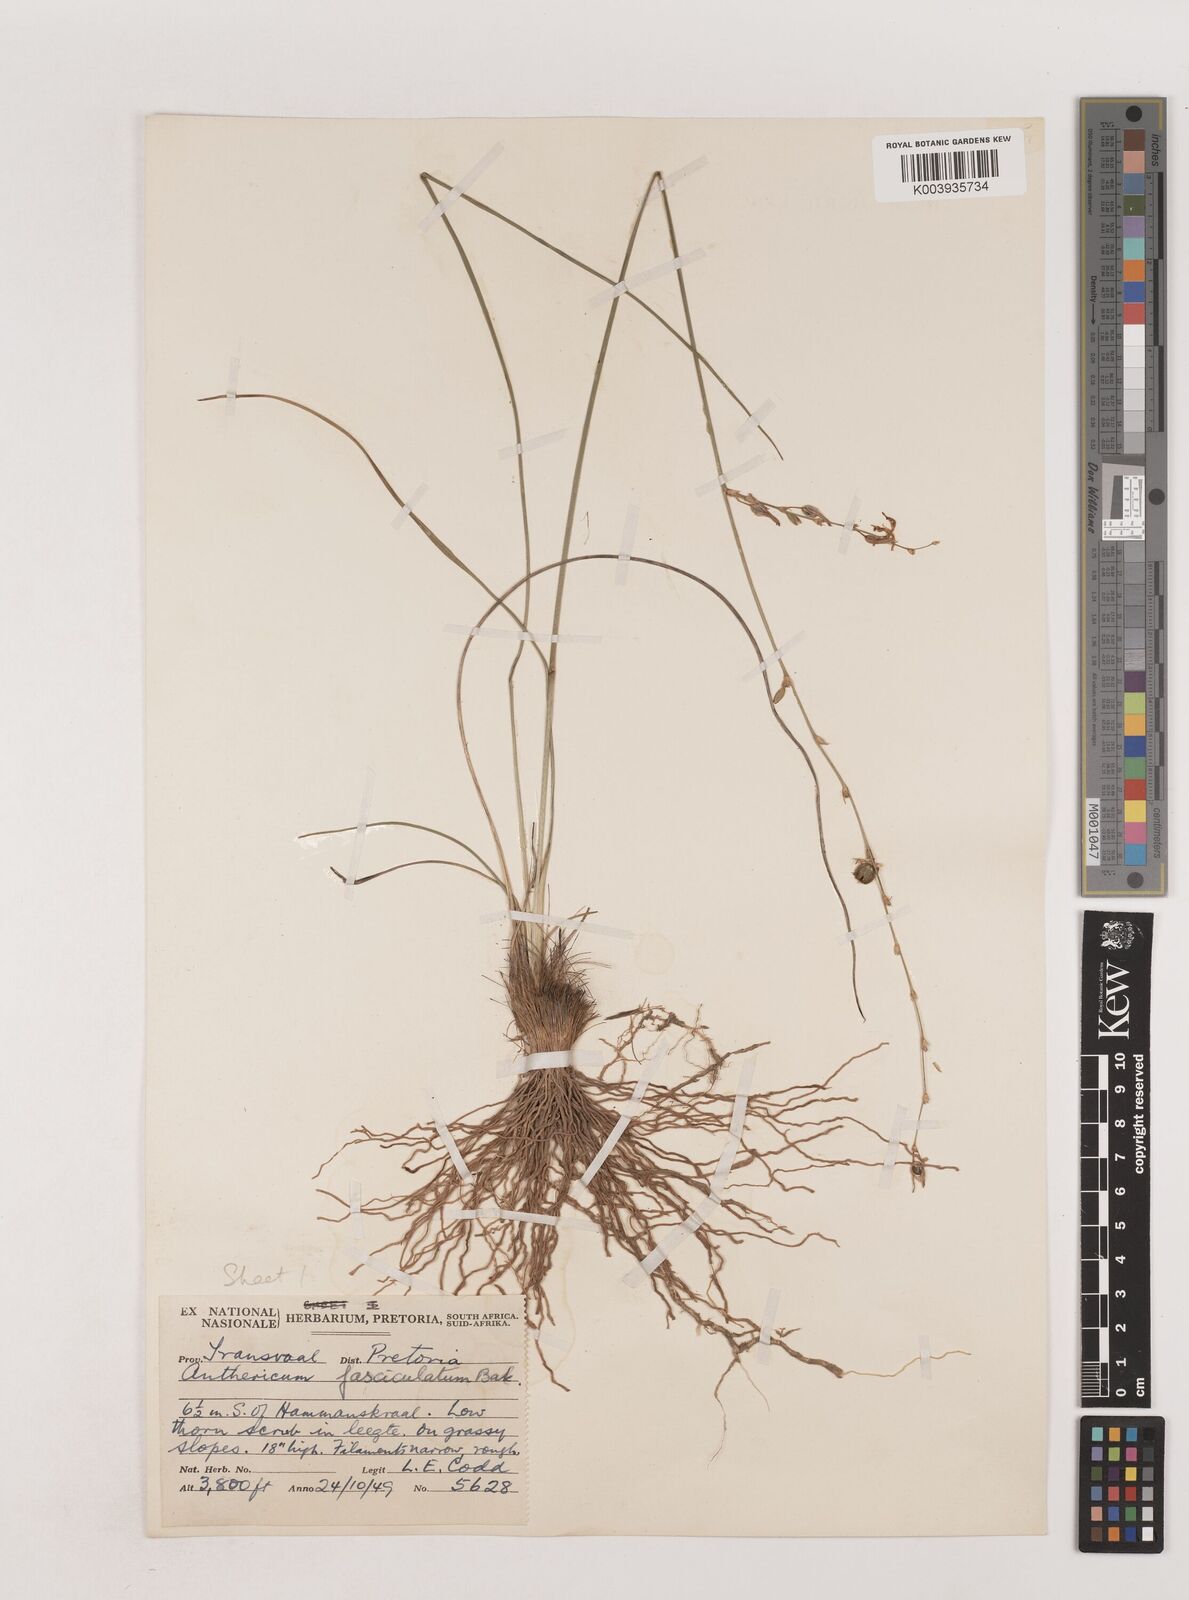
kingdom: Plantae
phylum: Tracheophyta
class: Liliopsida
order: Asparagales
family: Asparagaceae
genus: Chlorophytum
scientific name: Chlorophytum fasciculatum
